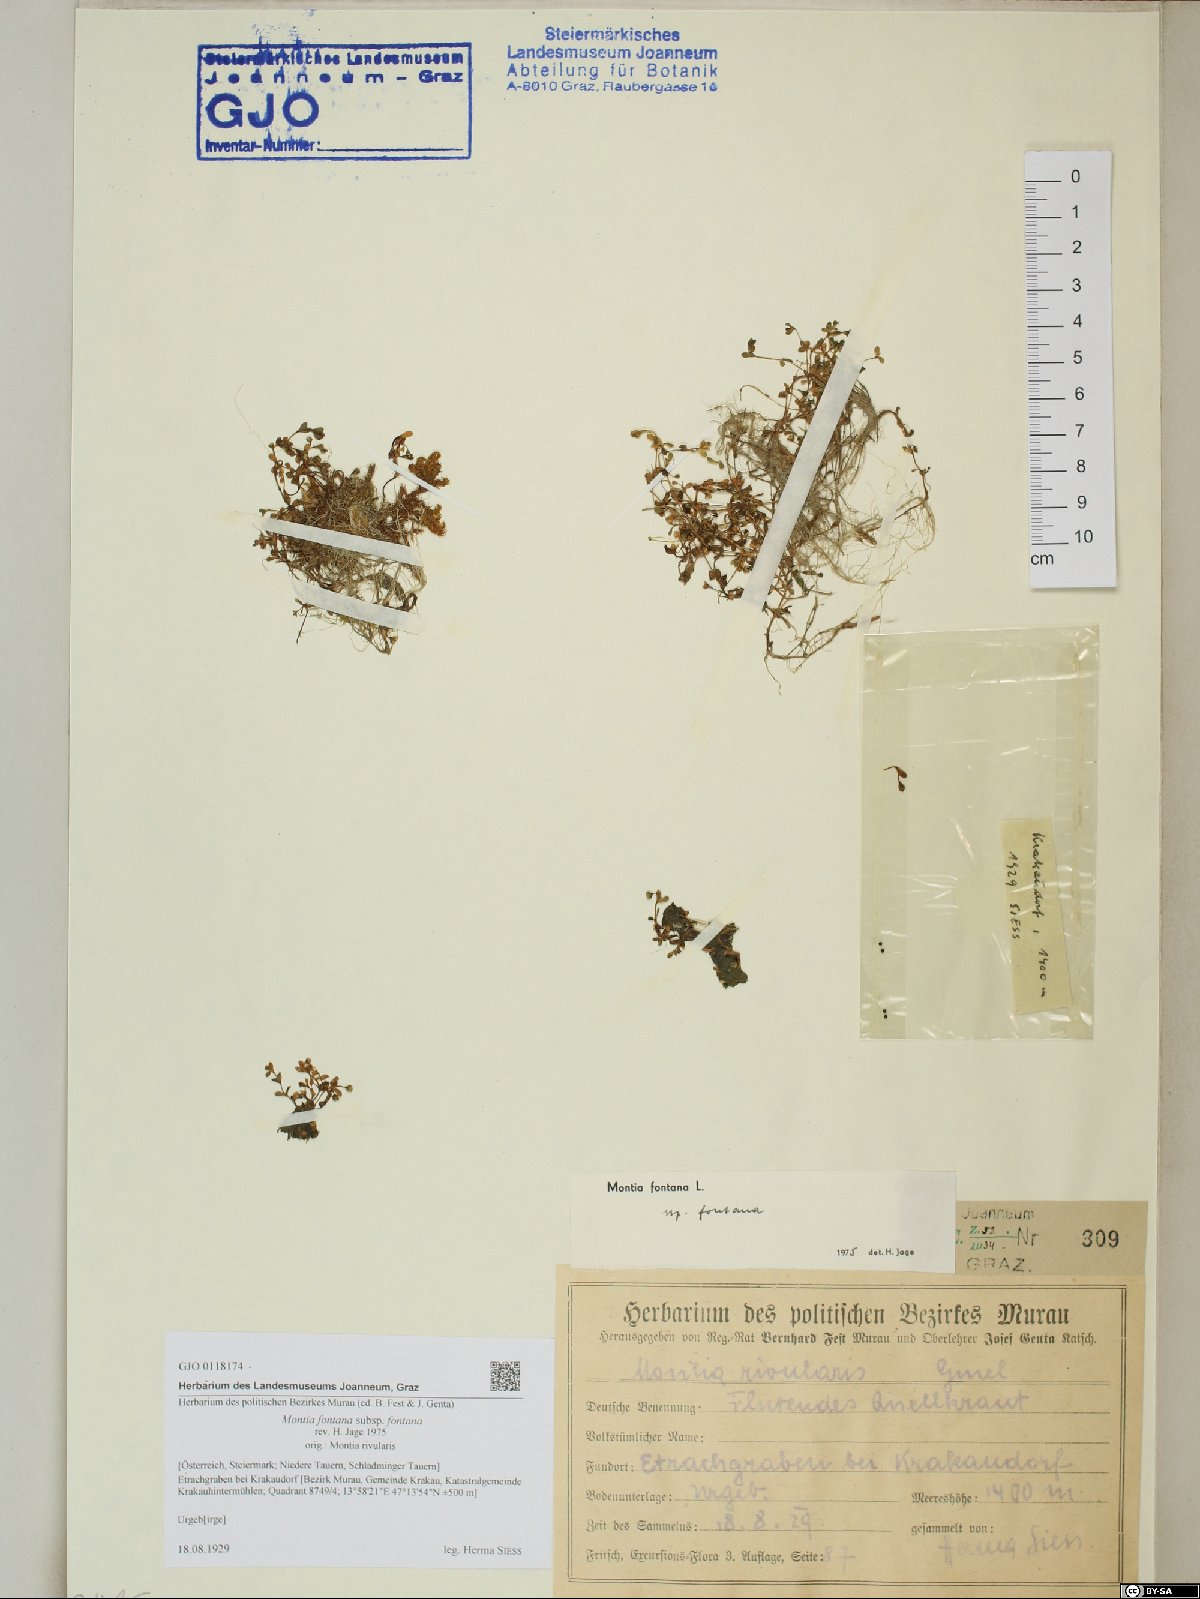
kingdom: Plantae
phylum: Tracheophyta
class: Magnoliopsida
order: Caryophyllales
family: Montiaceae
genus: Montia
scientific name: Montia fontana
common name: Blinks
